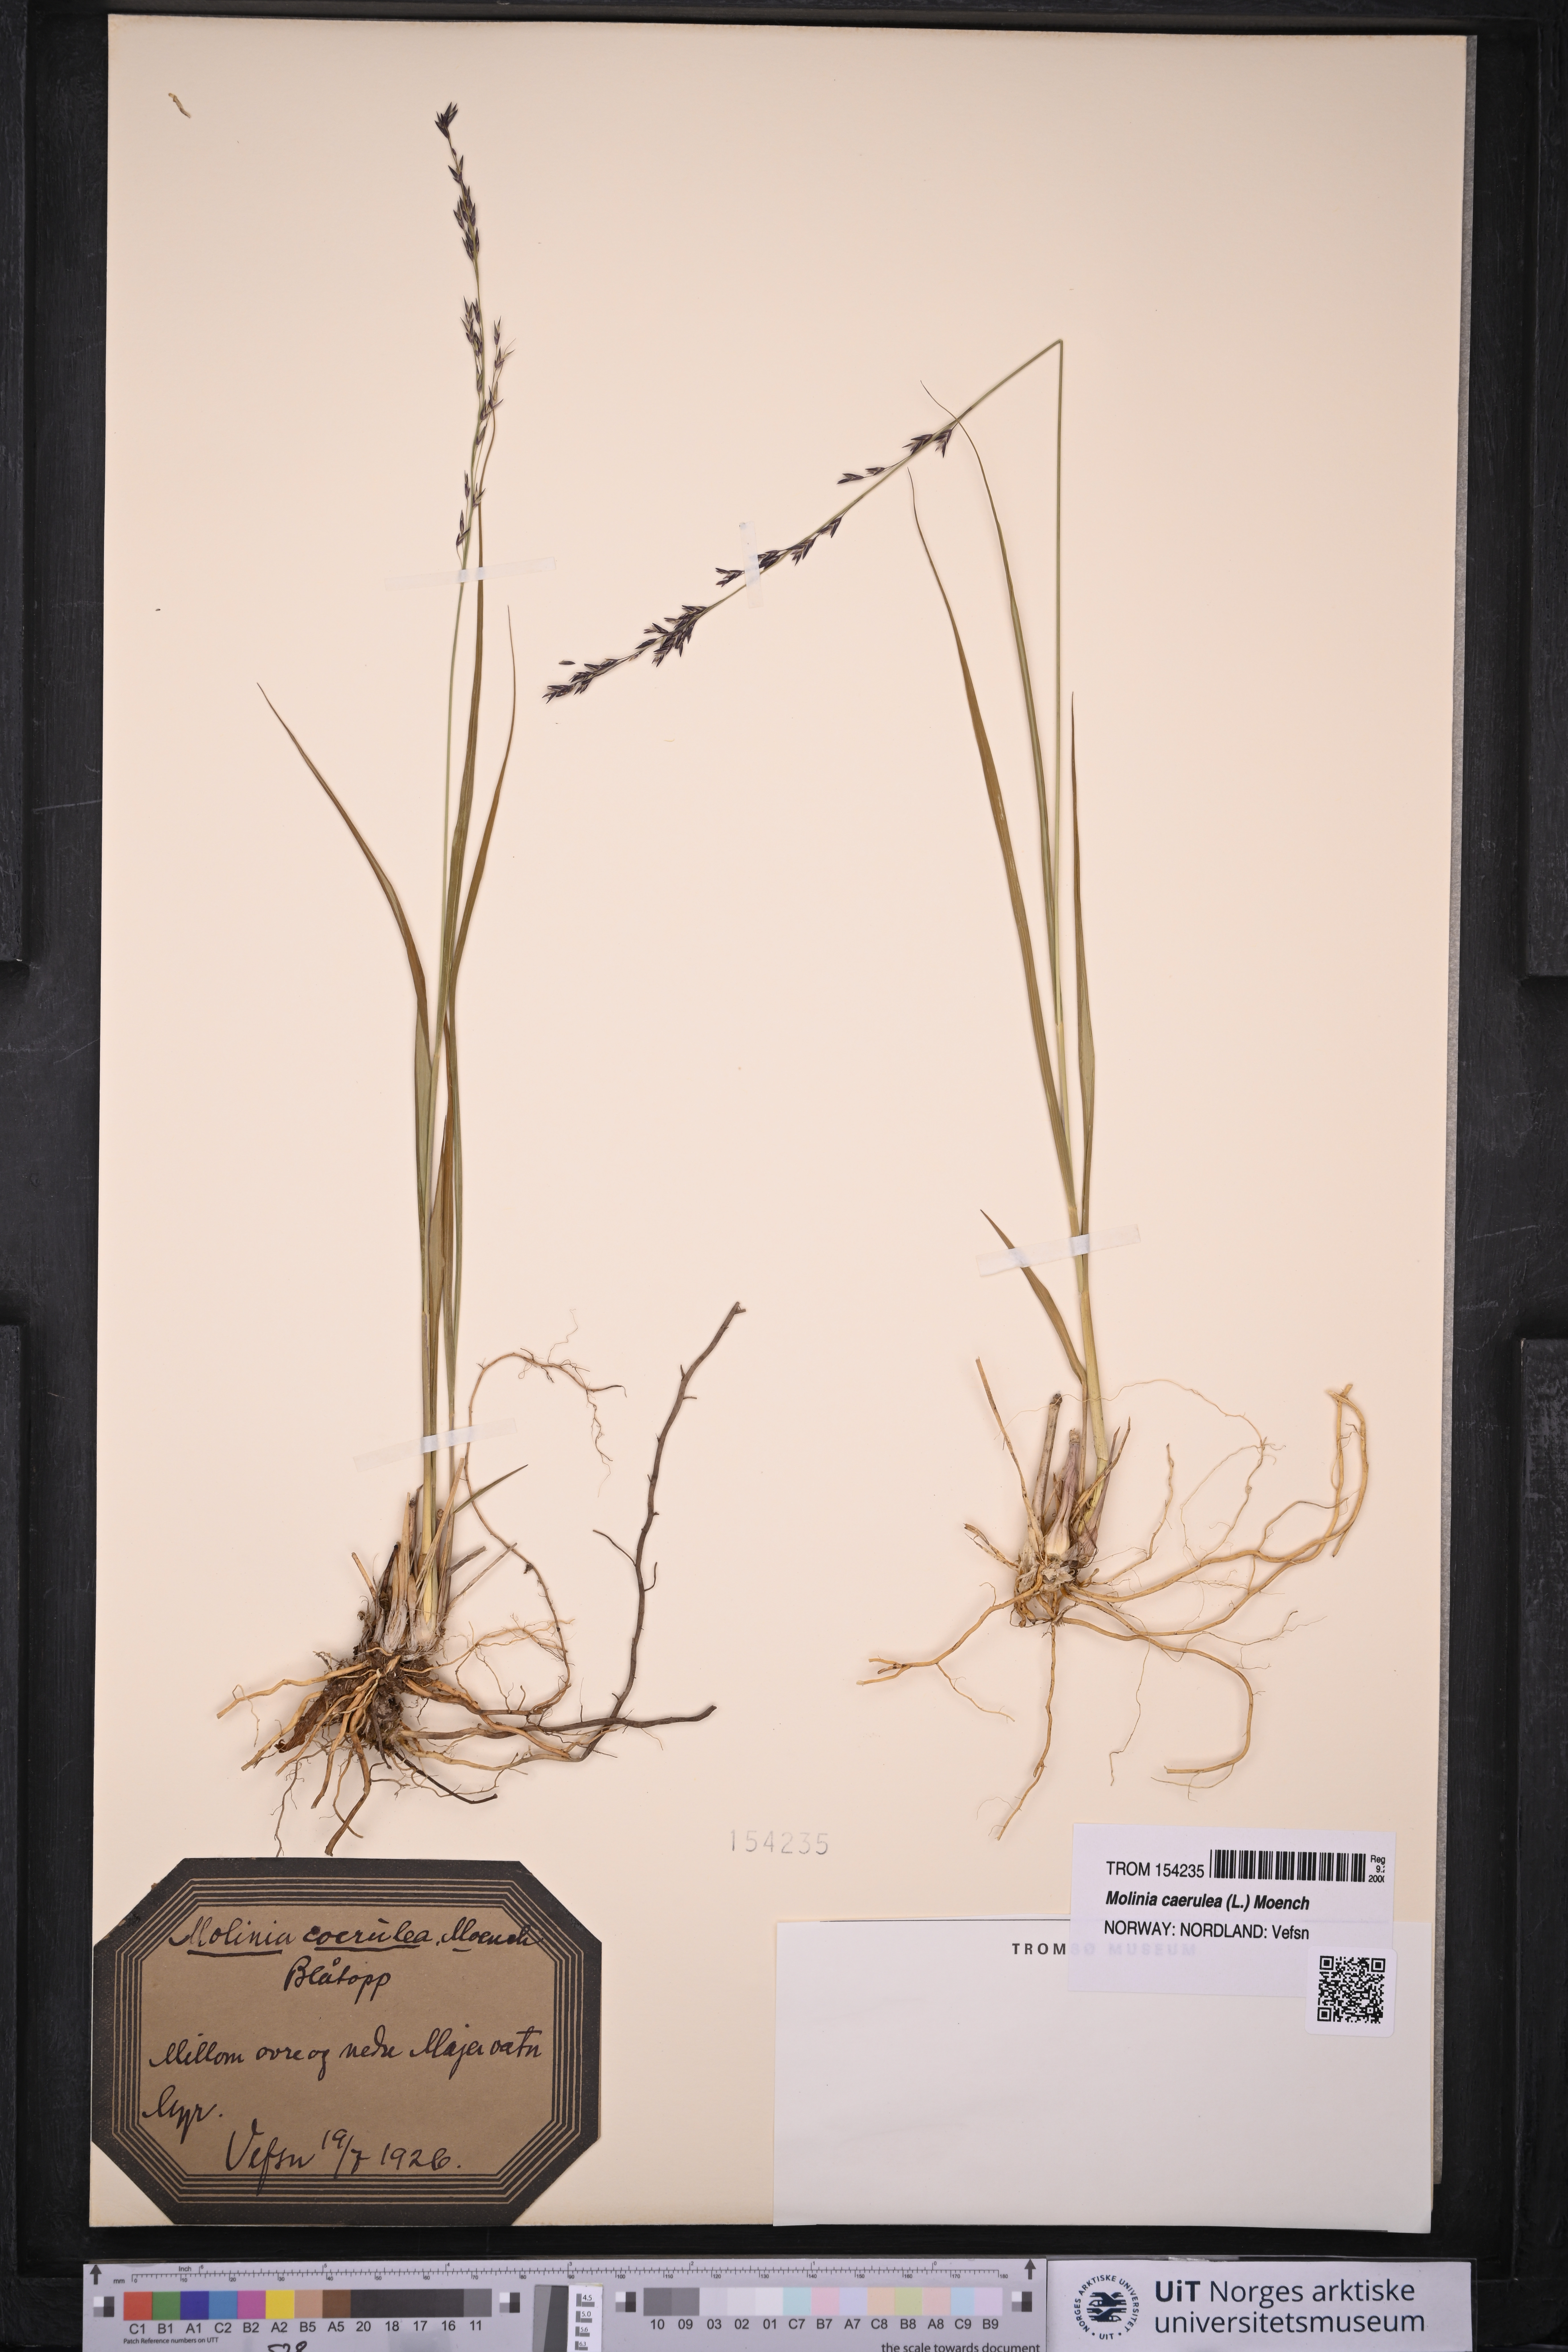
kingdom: Plantae
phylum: Tracheophyta
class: Liliopsida
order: Poales
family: Poaceae
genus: Molinia
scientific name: Molinia caerulea
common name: Purple moor-grass
